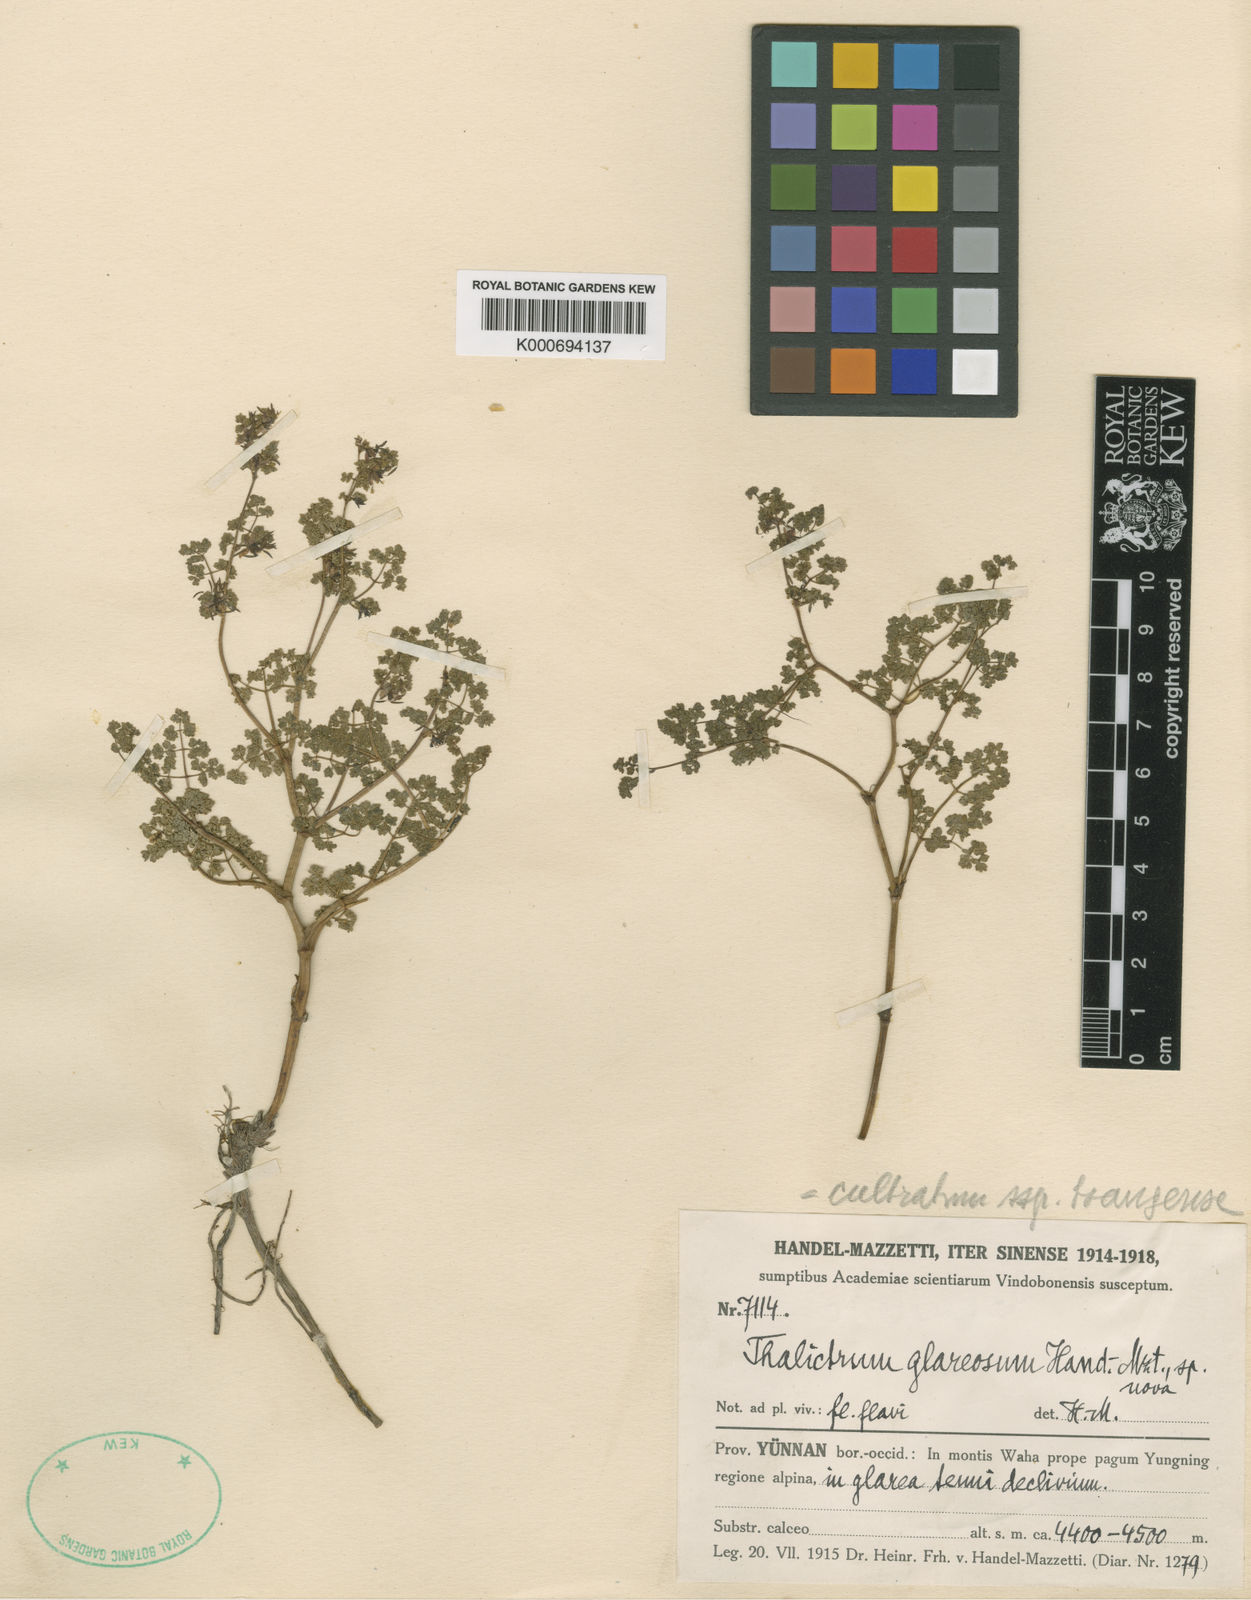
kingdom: Plantae
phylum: Tracheophyta
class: Magnoliopsida
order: Ranunculales
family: Ranunculaceae
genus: Thalictrum
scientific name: Thalictrum squamiferum
